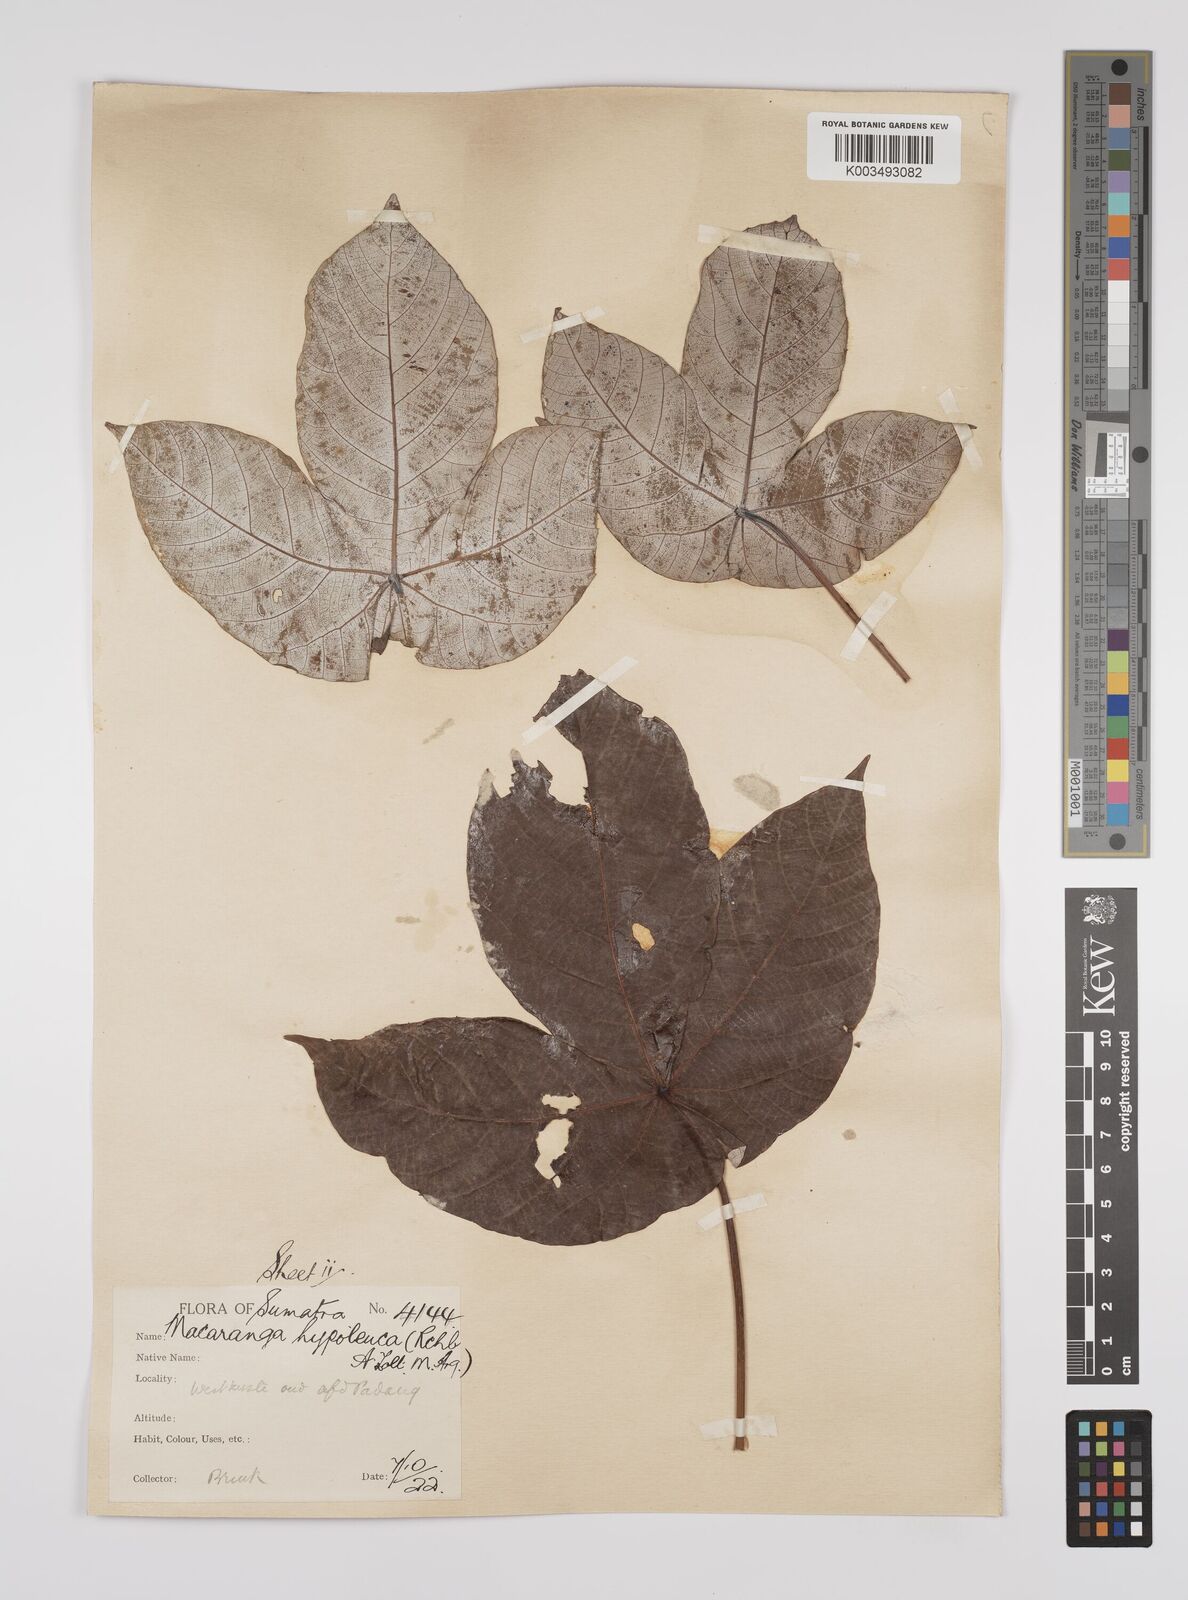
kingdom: Plantae
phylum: Tracheophyta
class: Magnoliopsida
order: Malpighiales
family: Euphorbiaceae
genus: Macaranga
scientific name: Macaranga hypoleuca
